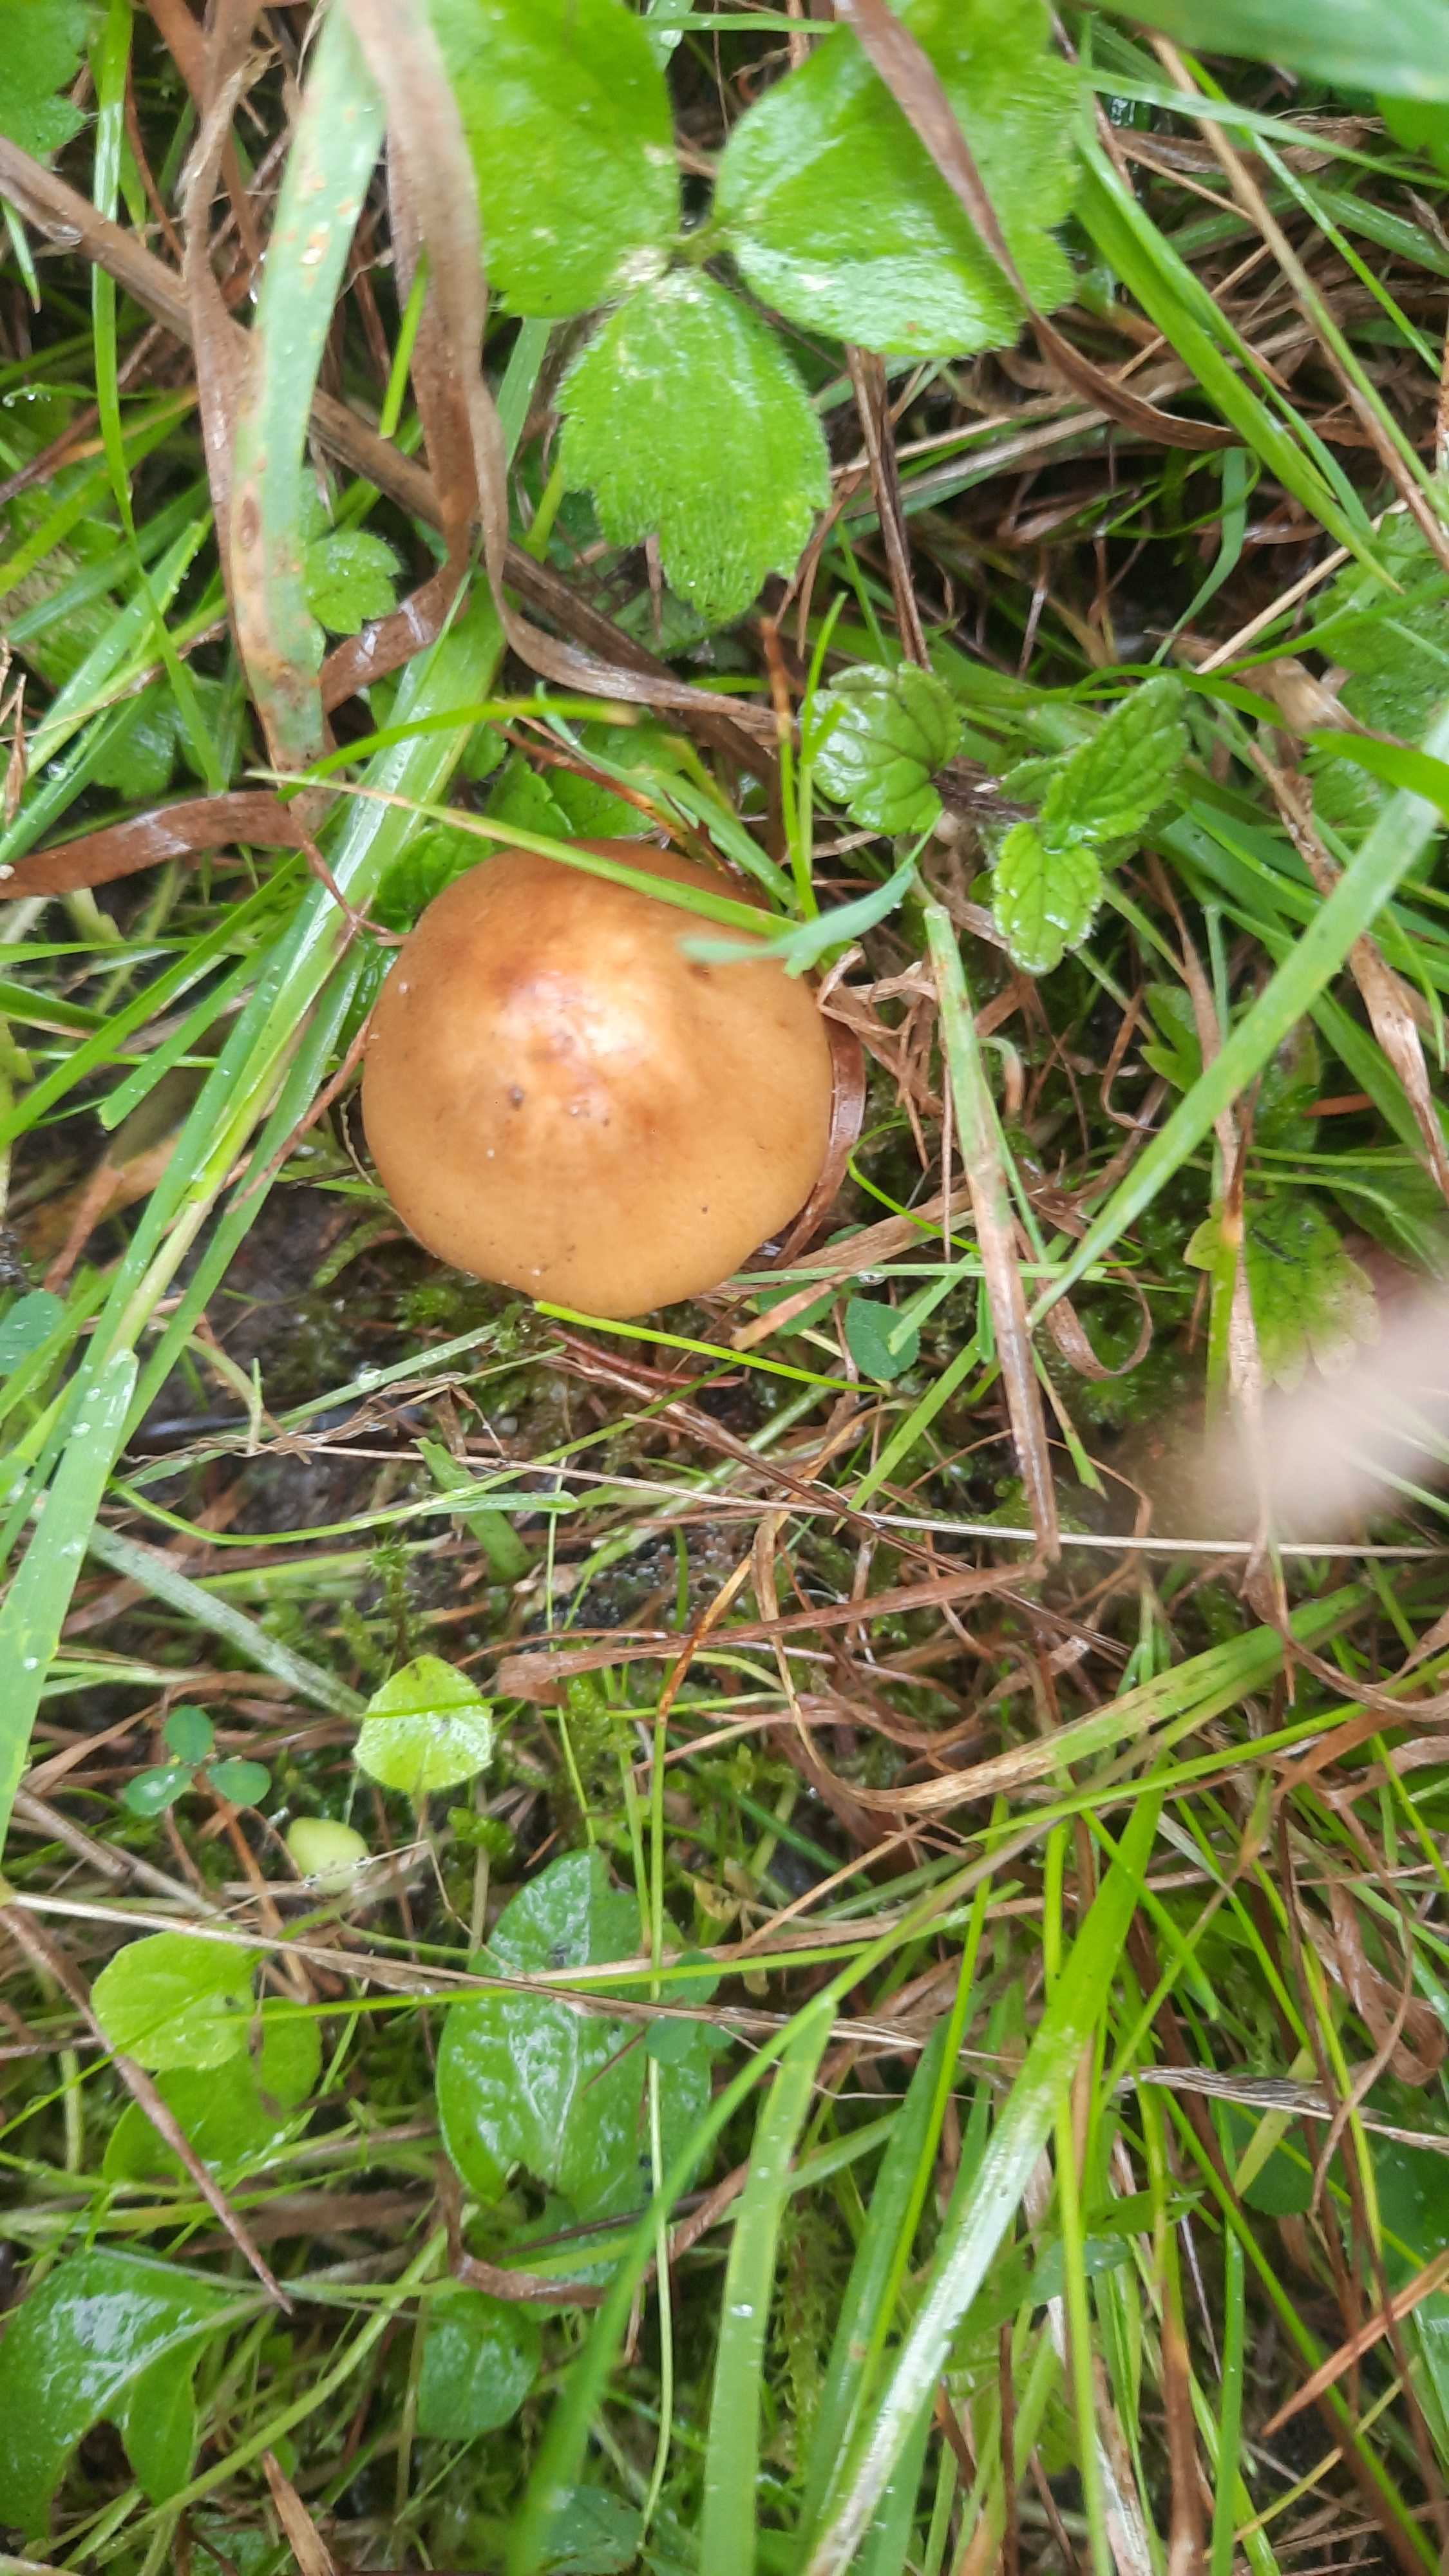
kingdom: Fungi
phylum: Basidiomycota
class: Agaricomycetes
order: Agaricales
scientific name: Agaricales
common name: champignonordenen
